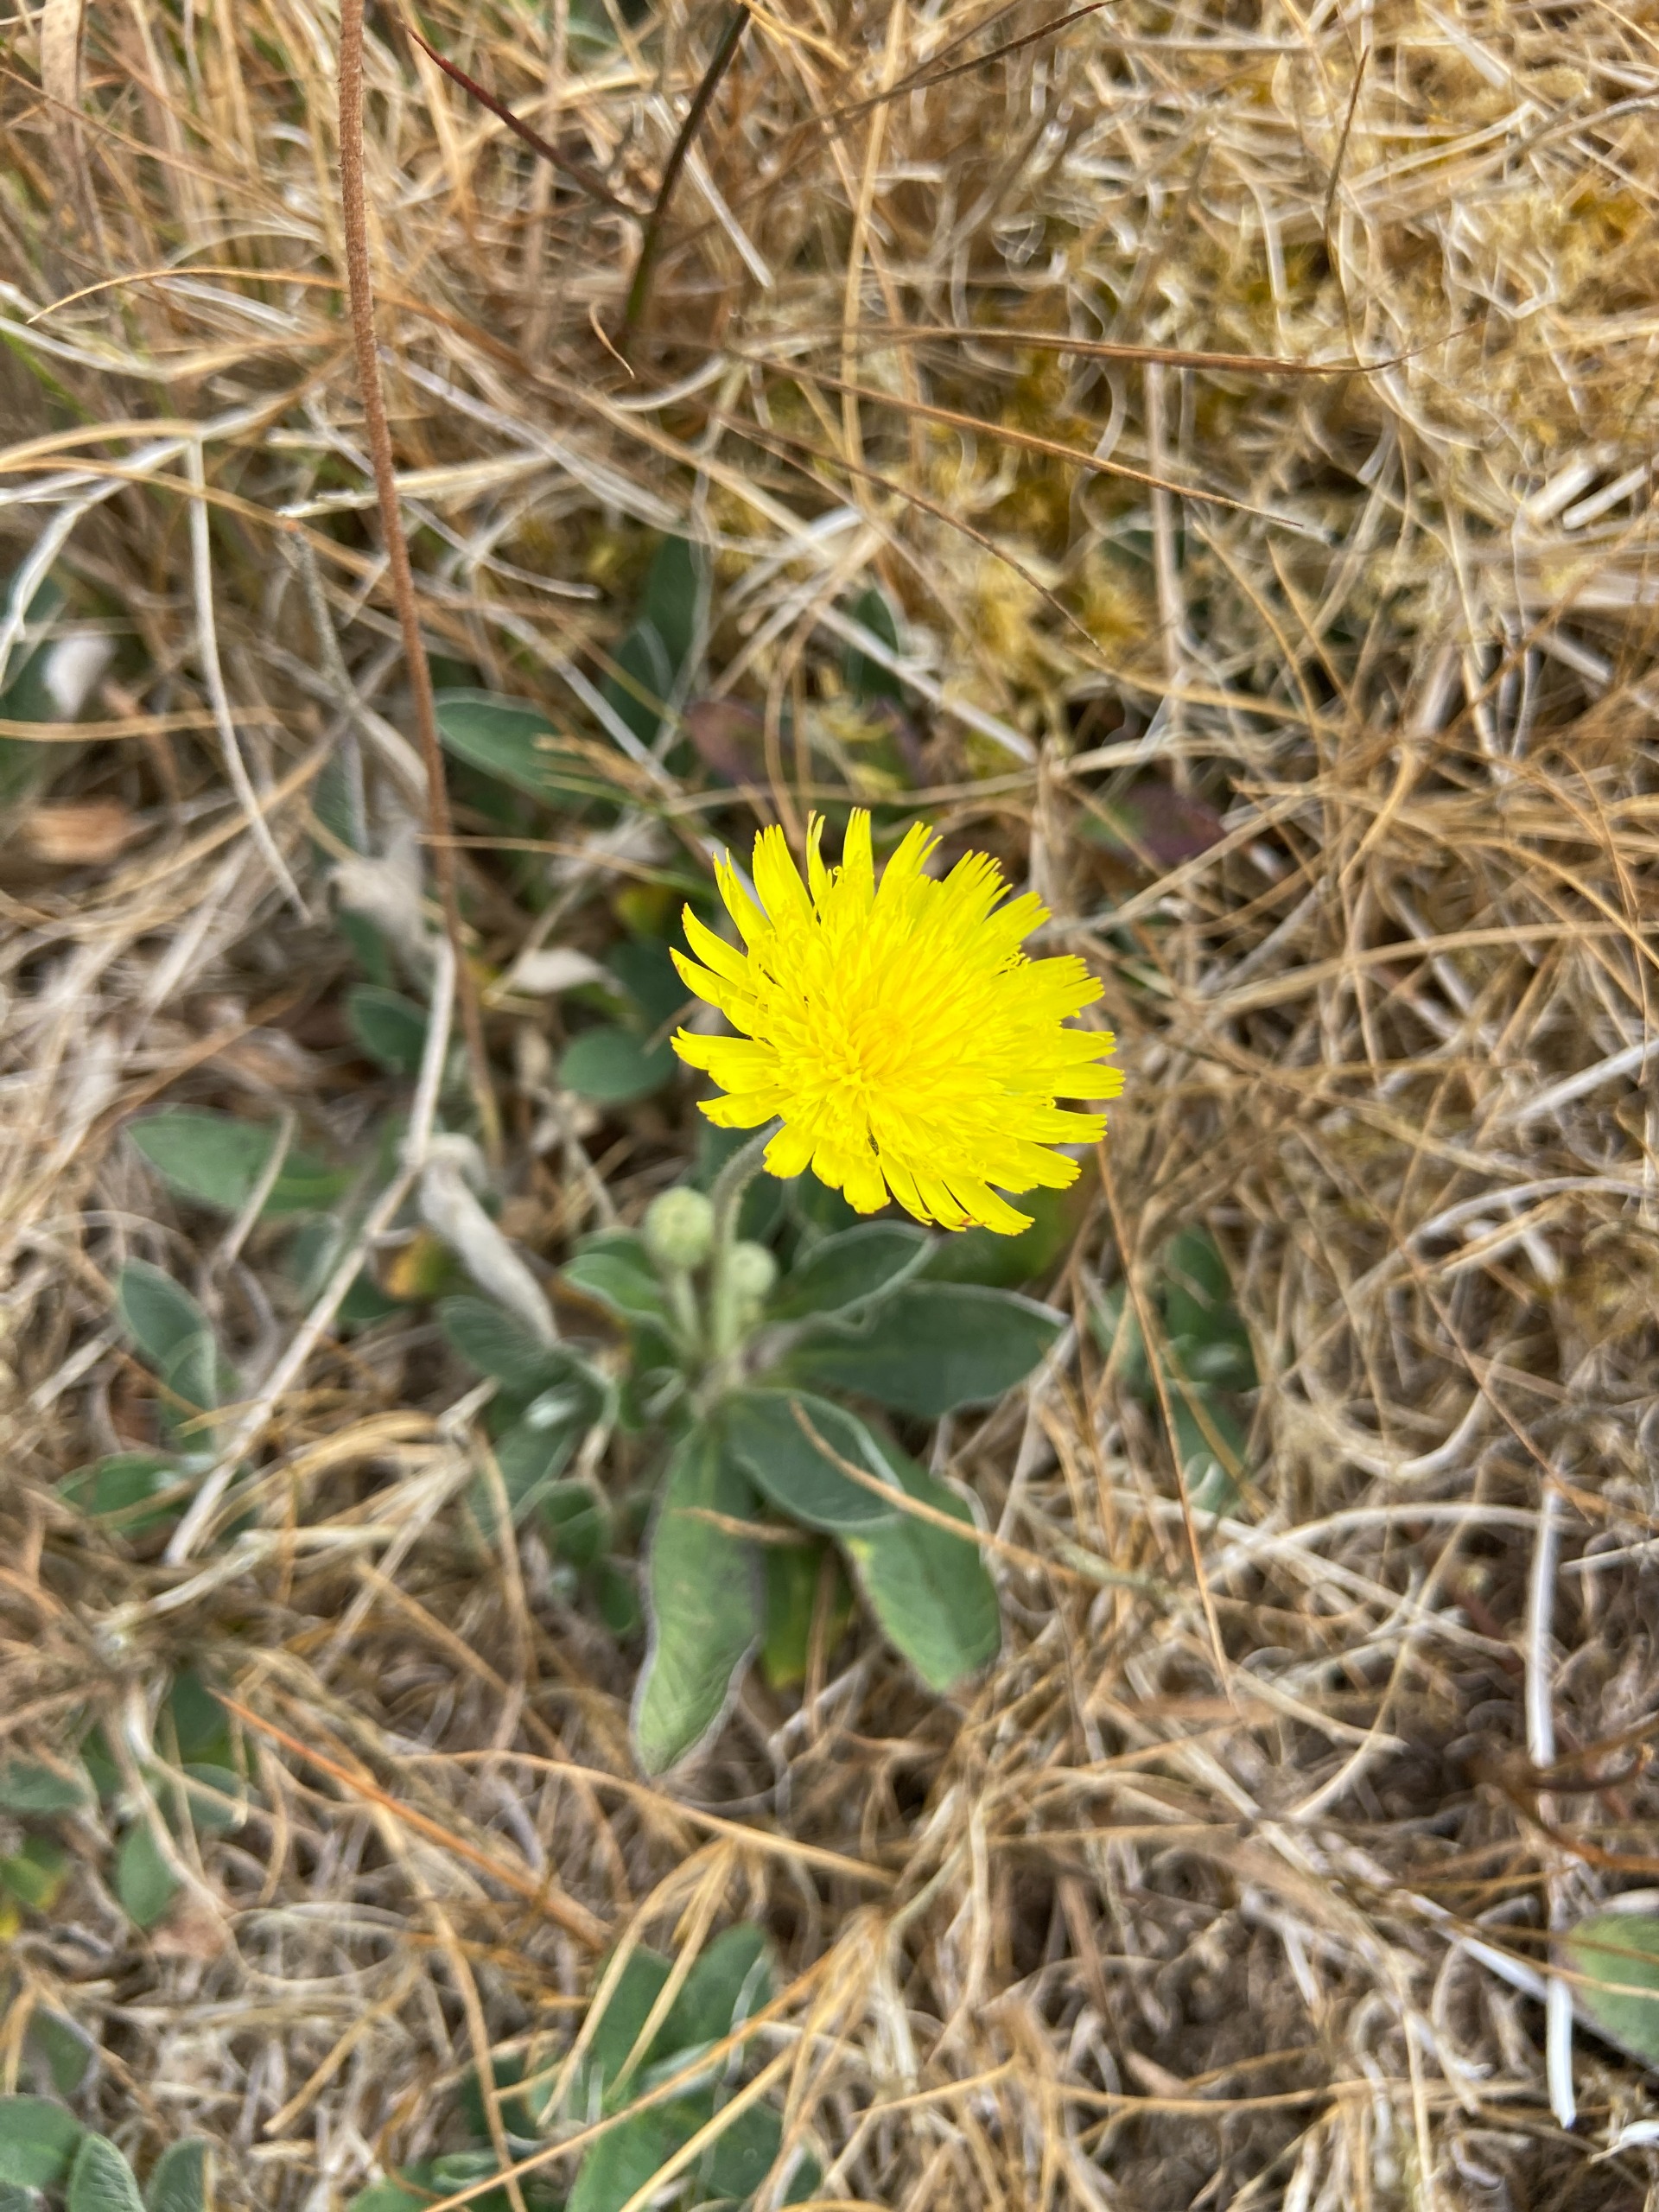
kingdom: Plantae
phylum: Tracheophyta
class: Magnoliopsida
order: Asterales
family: Asteraceae
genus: Pilosella
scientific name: Pilosella officinarum
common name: Håret høgeurt
